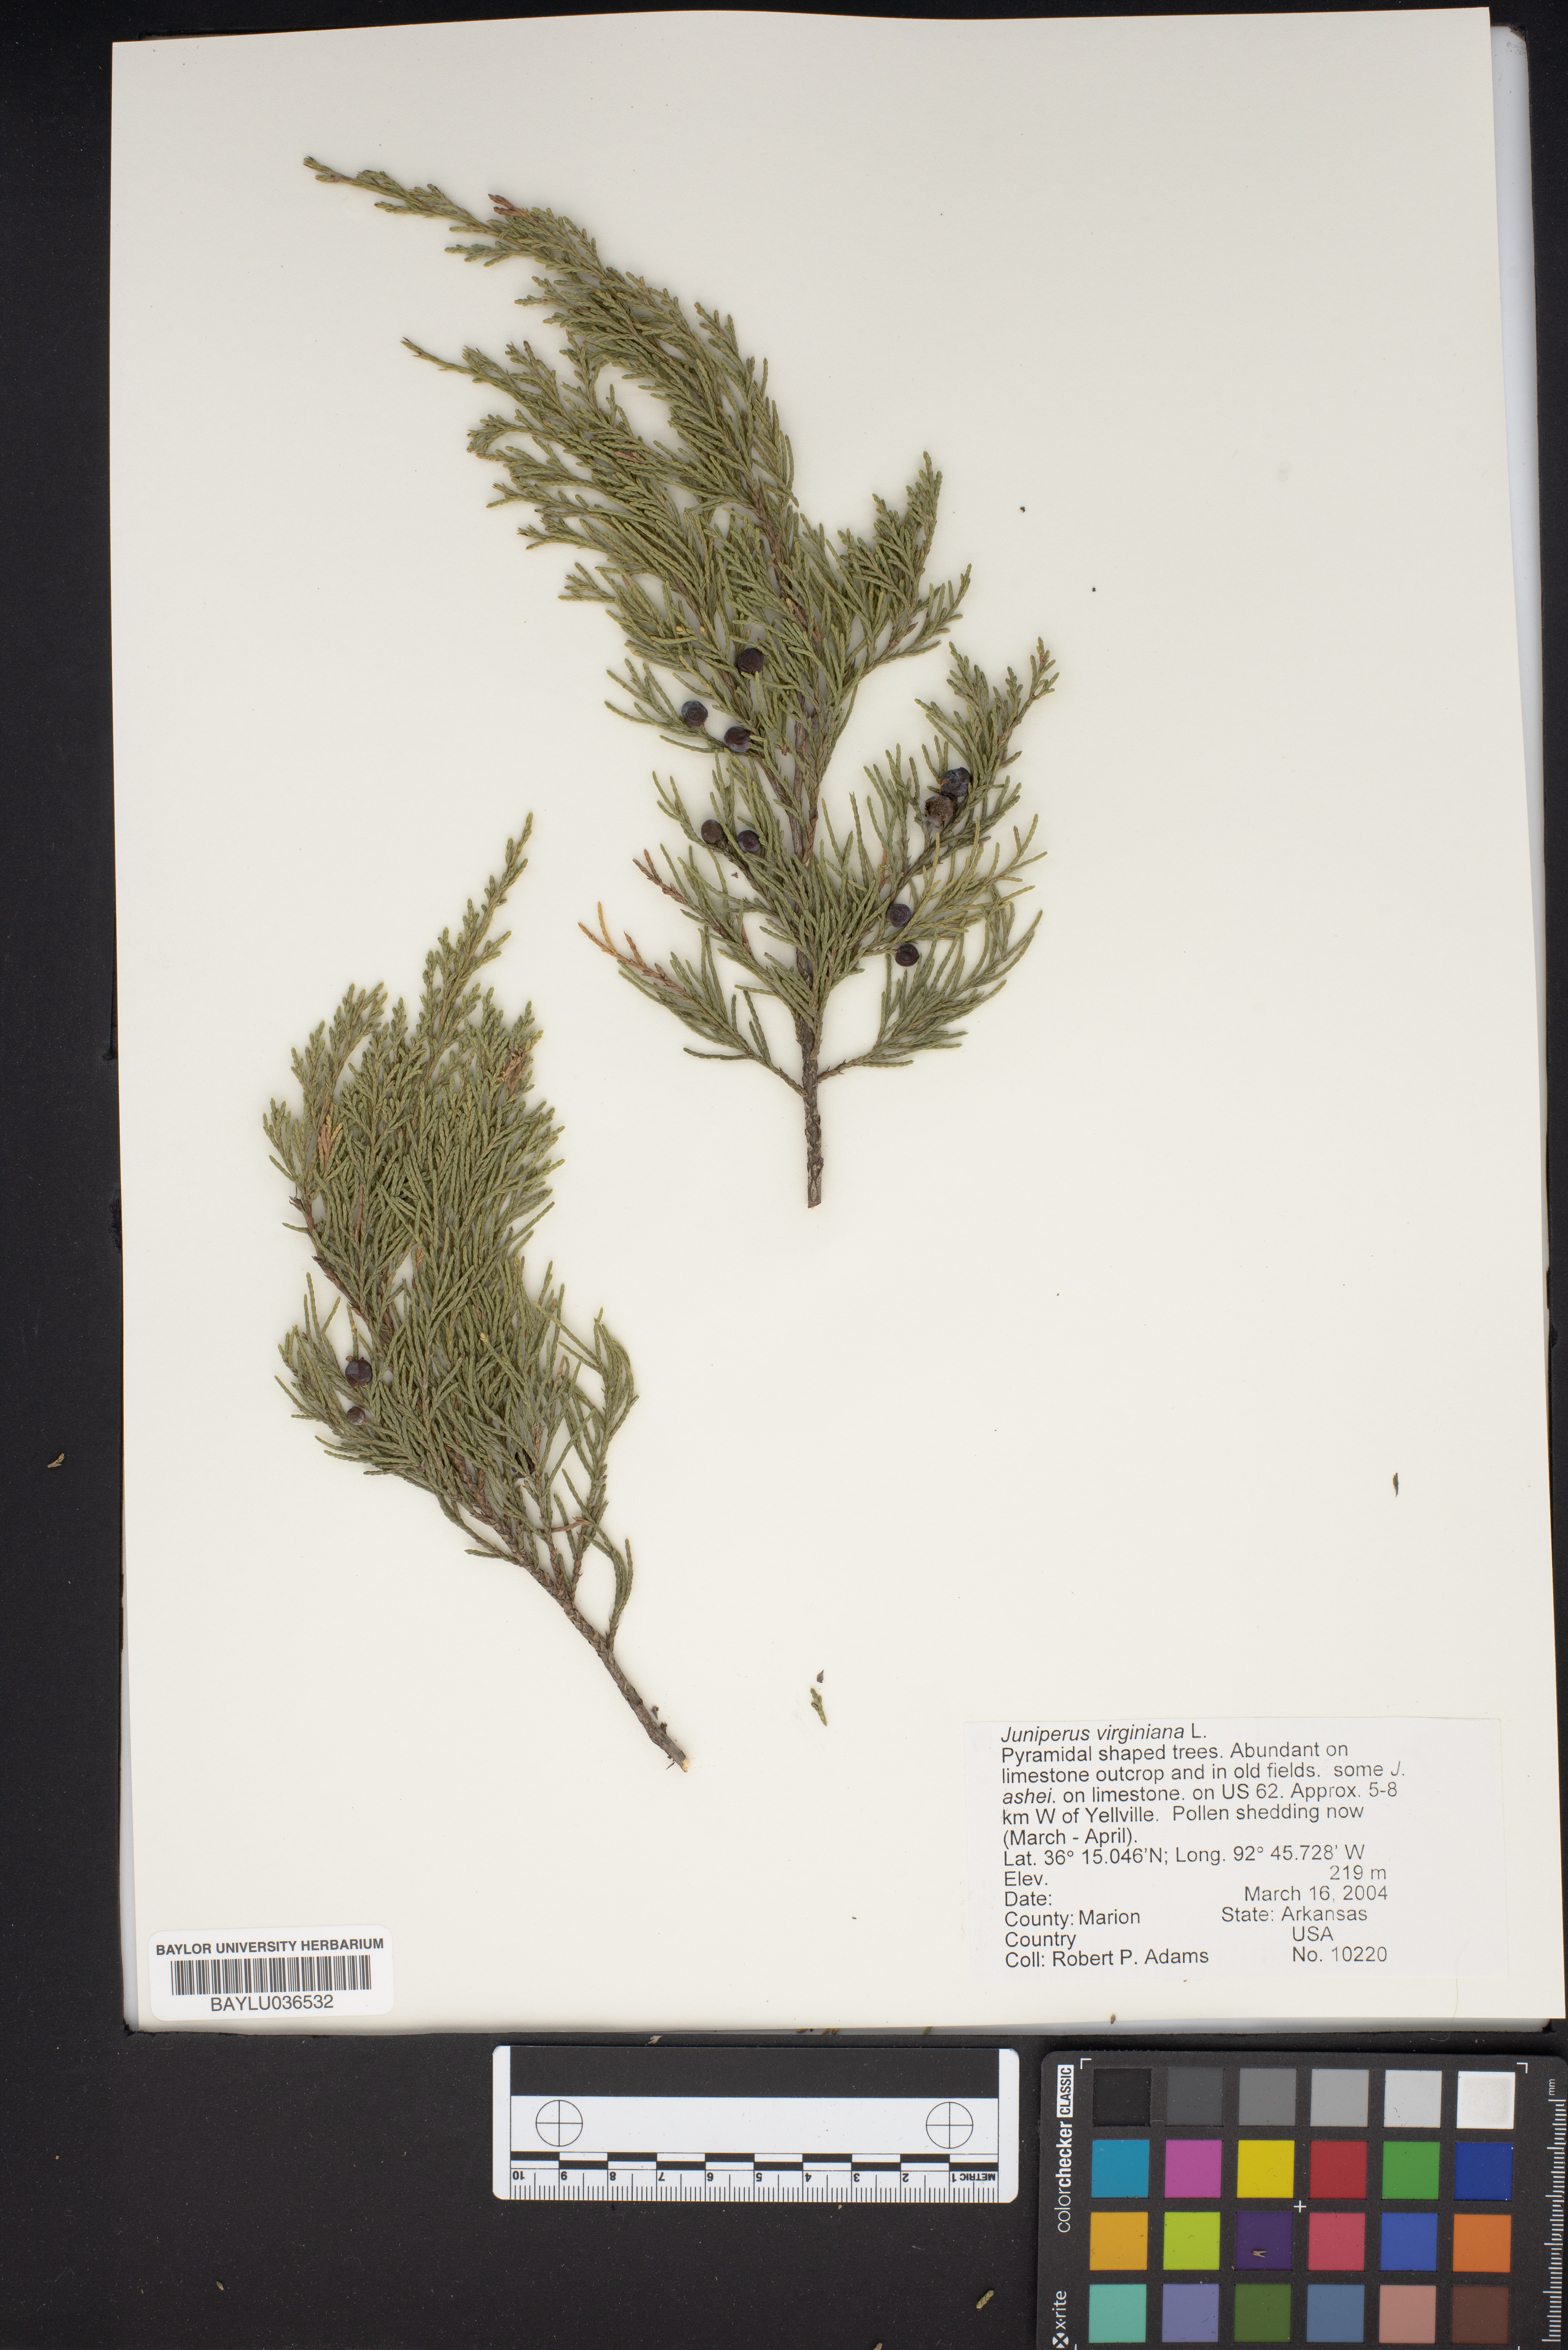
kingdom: Plantae
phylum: Tracheophyta
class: Pinopsida
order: Pinales
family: Cupressaceae
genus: Juniperus
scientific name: Juniperus virginiana
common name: Red juniper
